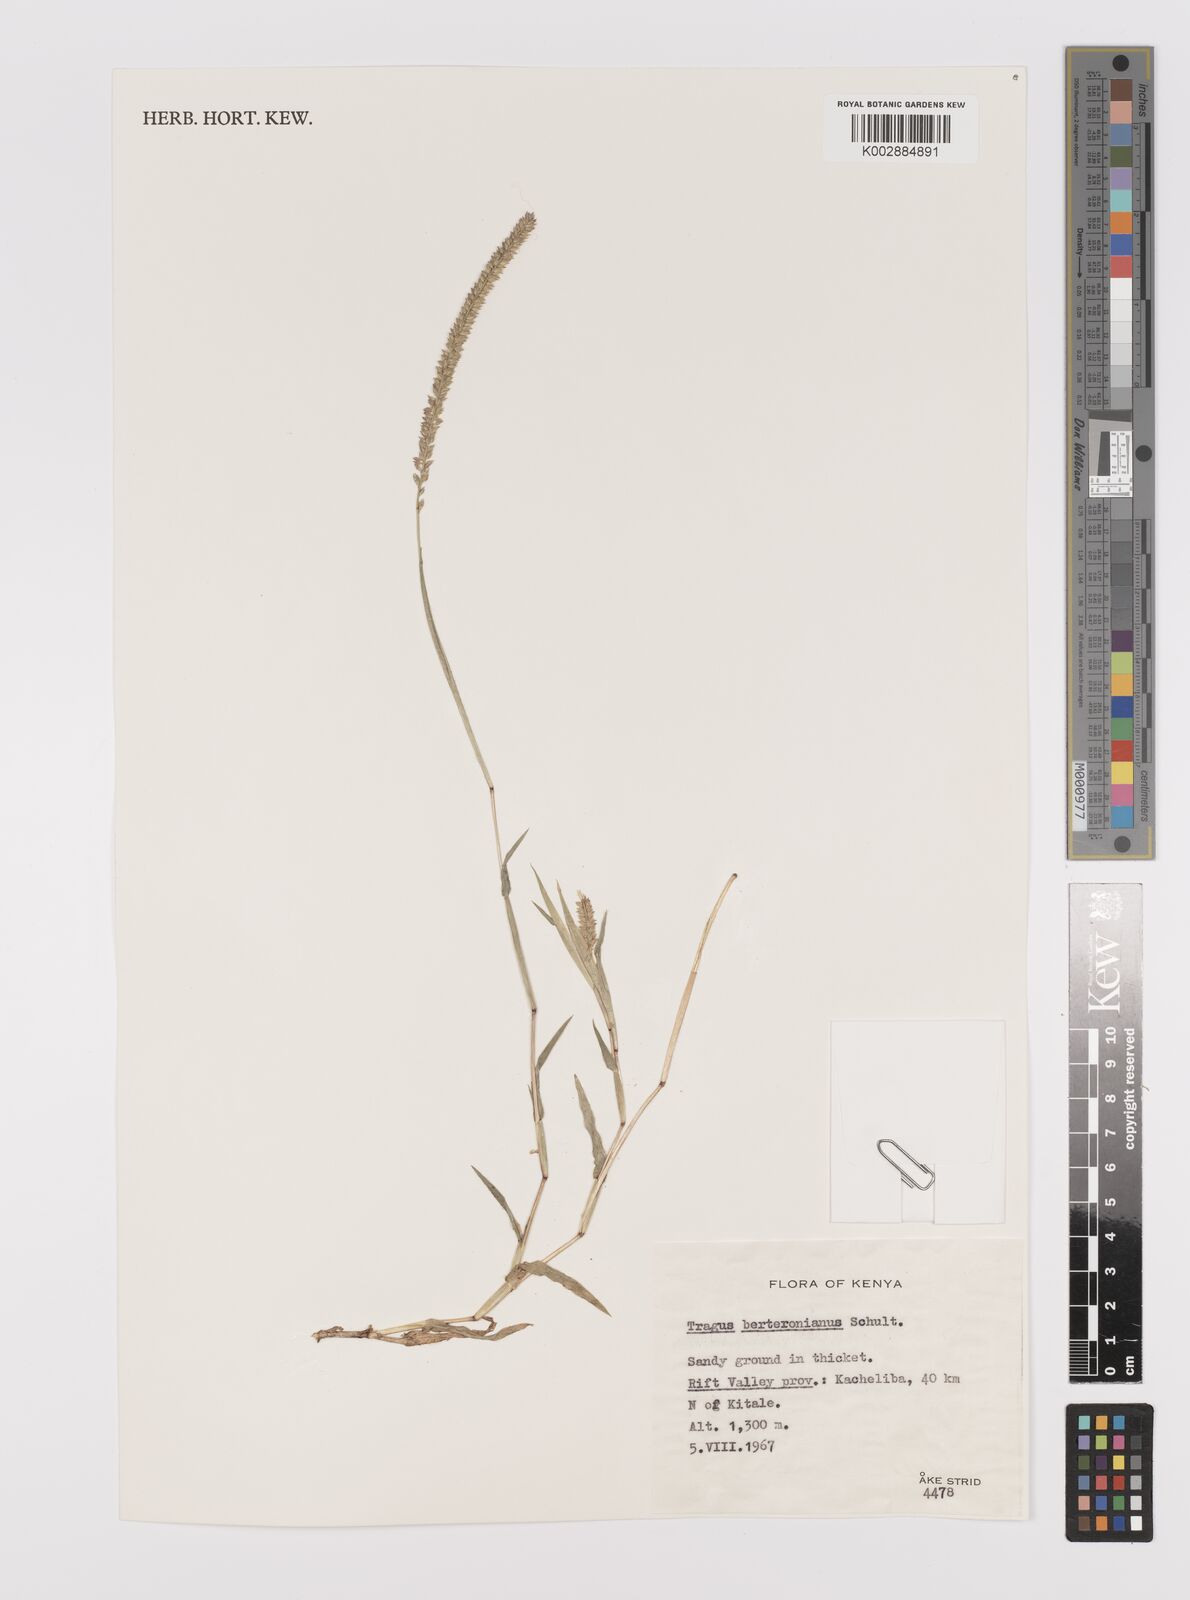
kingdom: Plantae
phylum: Tracheophyta
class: Liliopsida
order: Poales
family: Poaceae
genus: Tragus
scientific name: Tragus berteronianus
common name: African bur-grass
